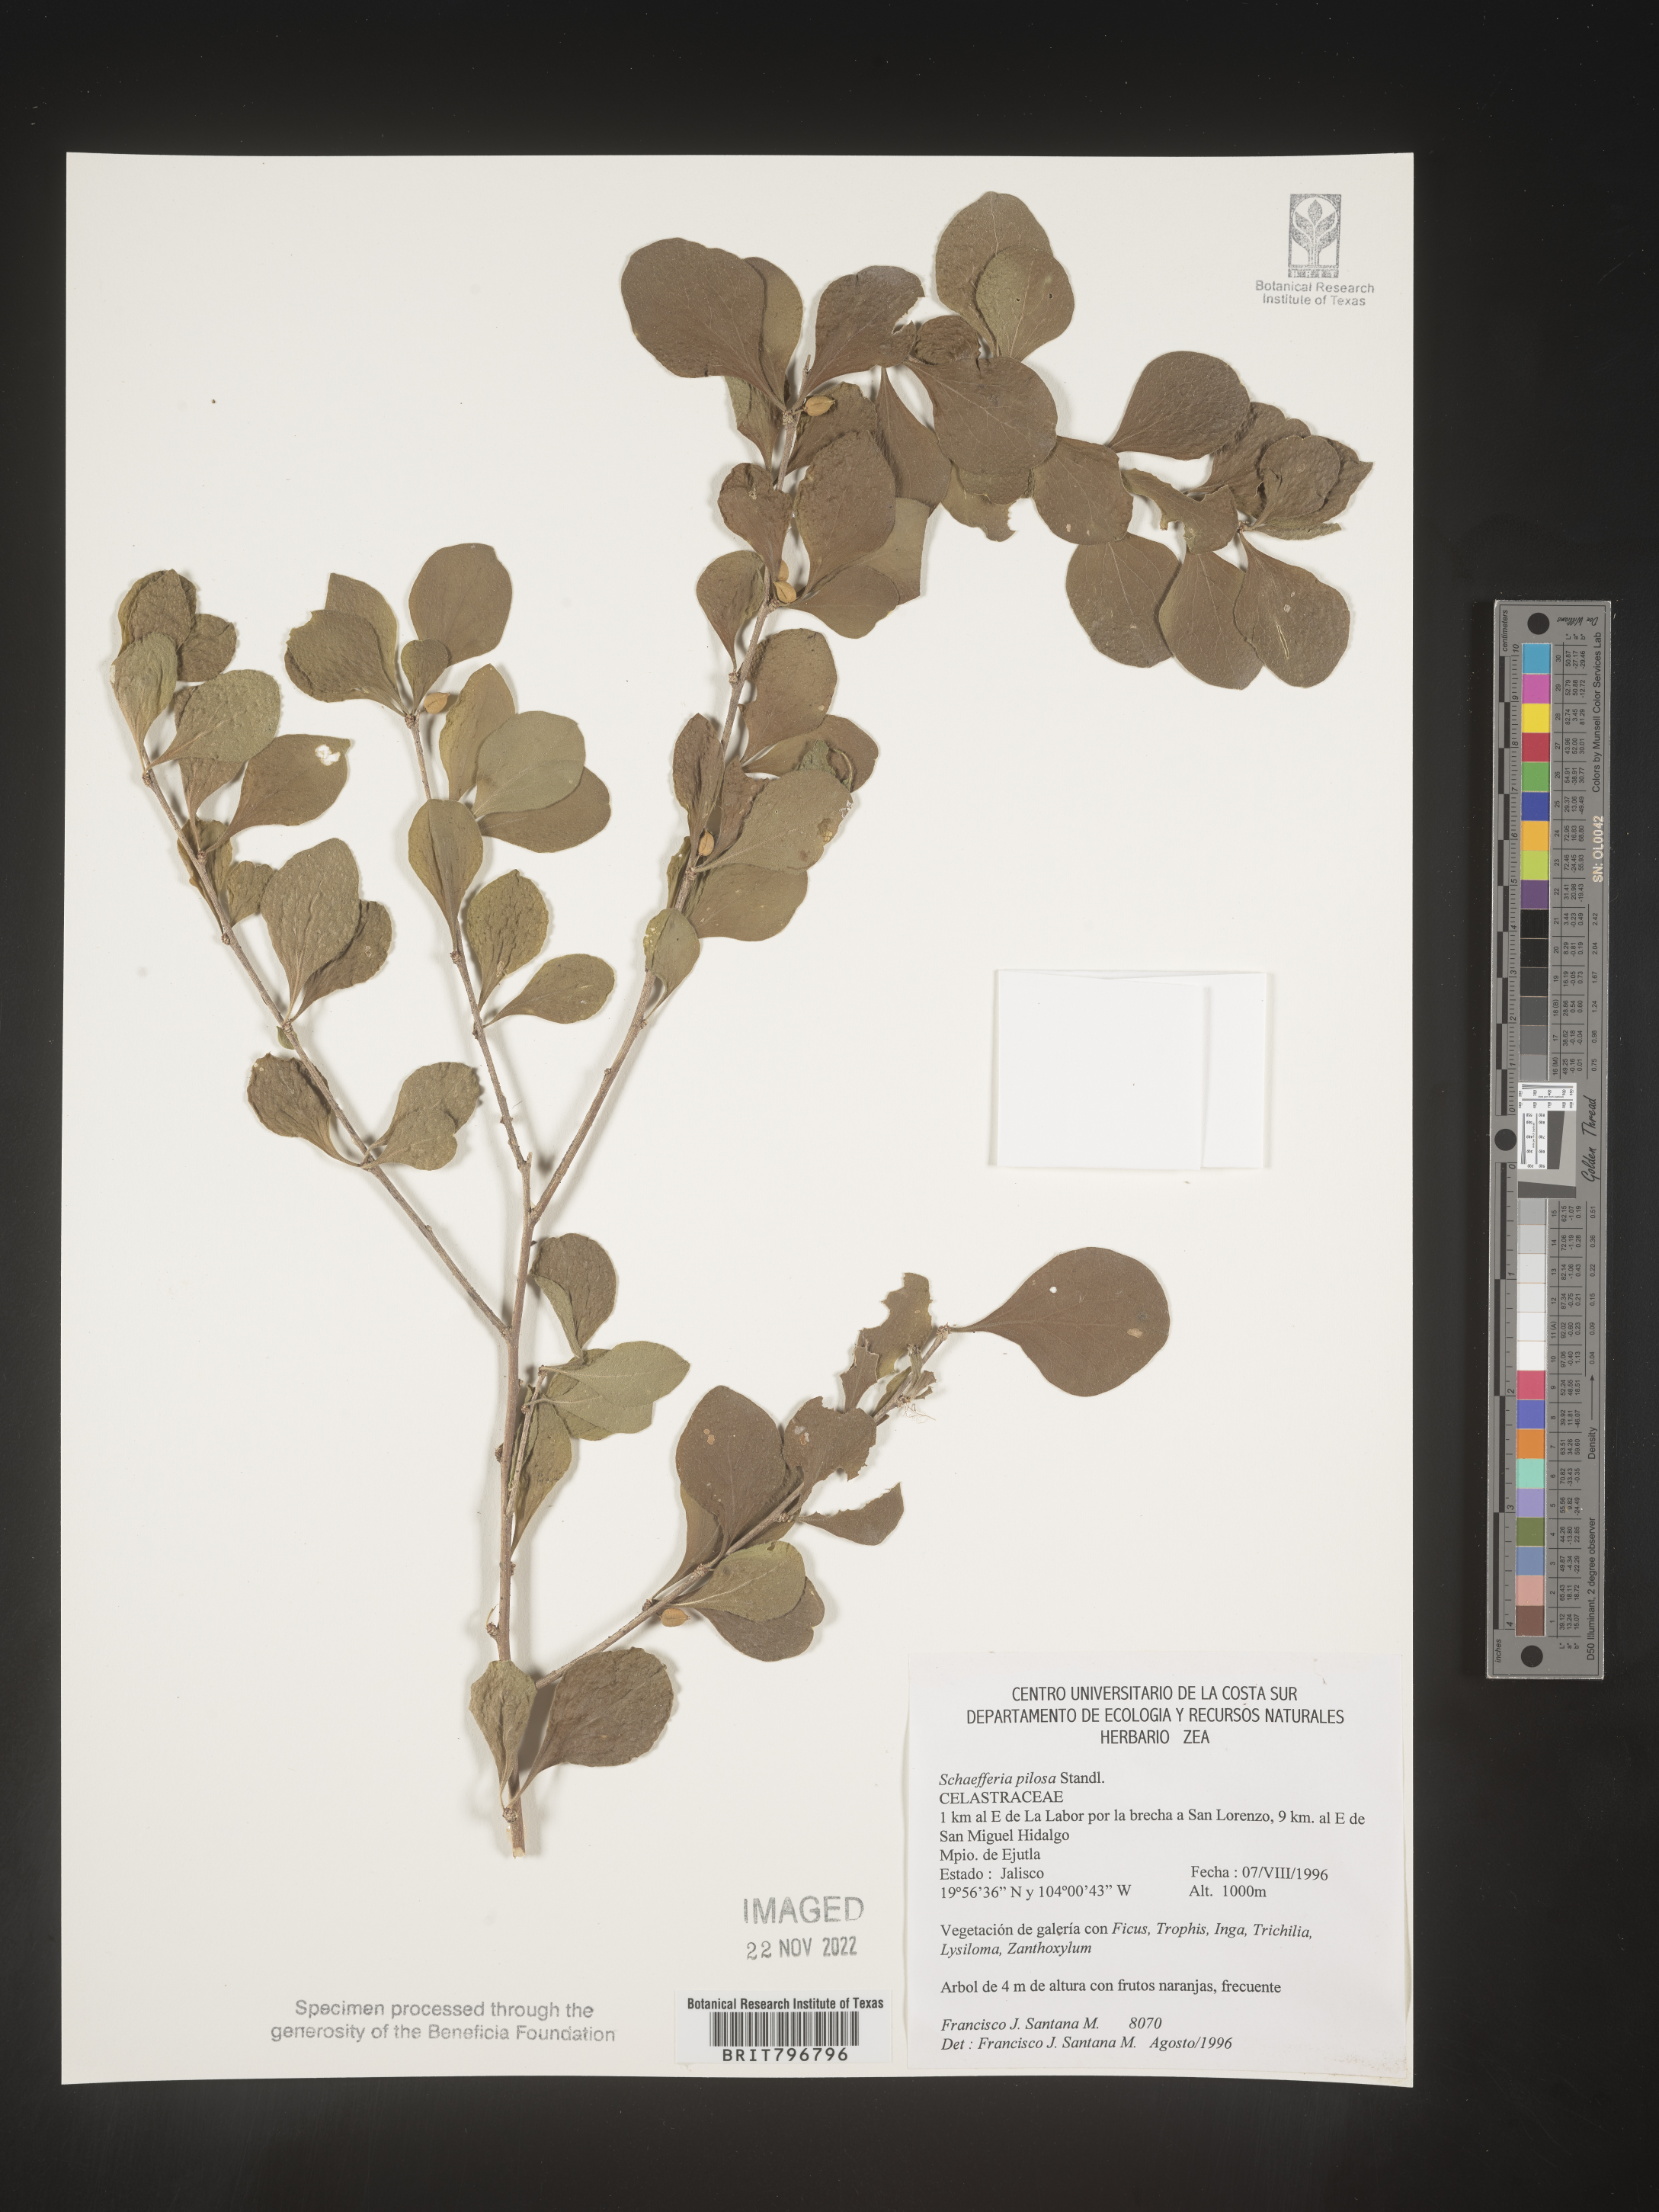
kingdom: Plantae
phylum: Tracheophyta
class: Magnoliopsida
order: Celastrales
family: Celastraceae
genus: Schaefferia
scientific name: Schaefferia
